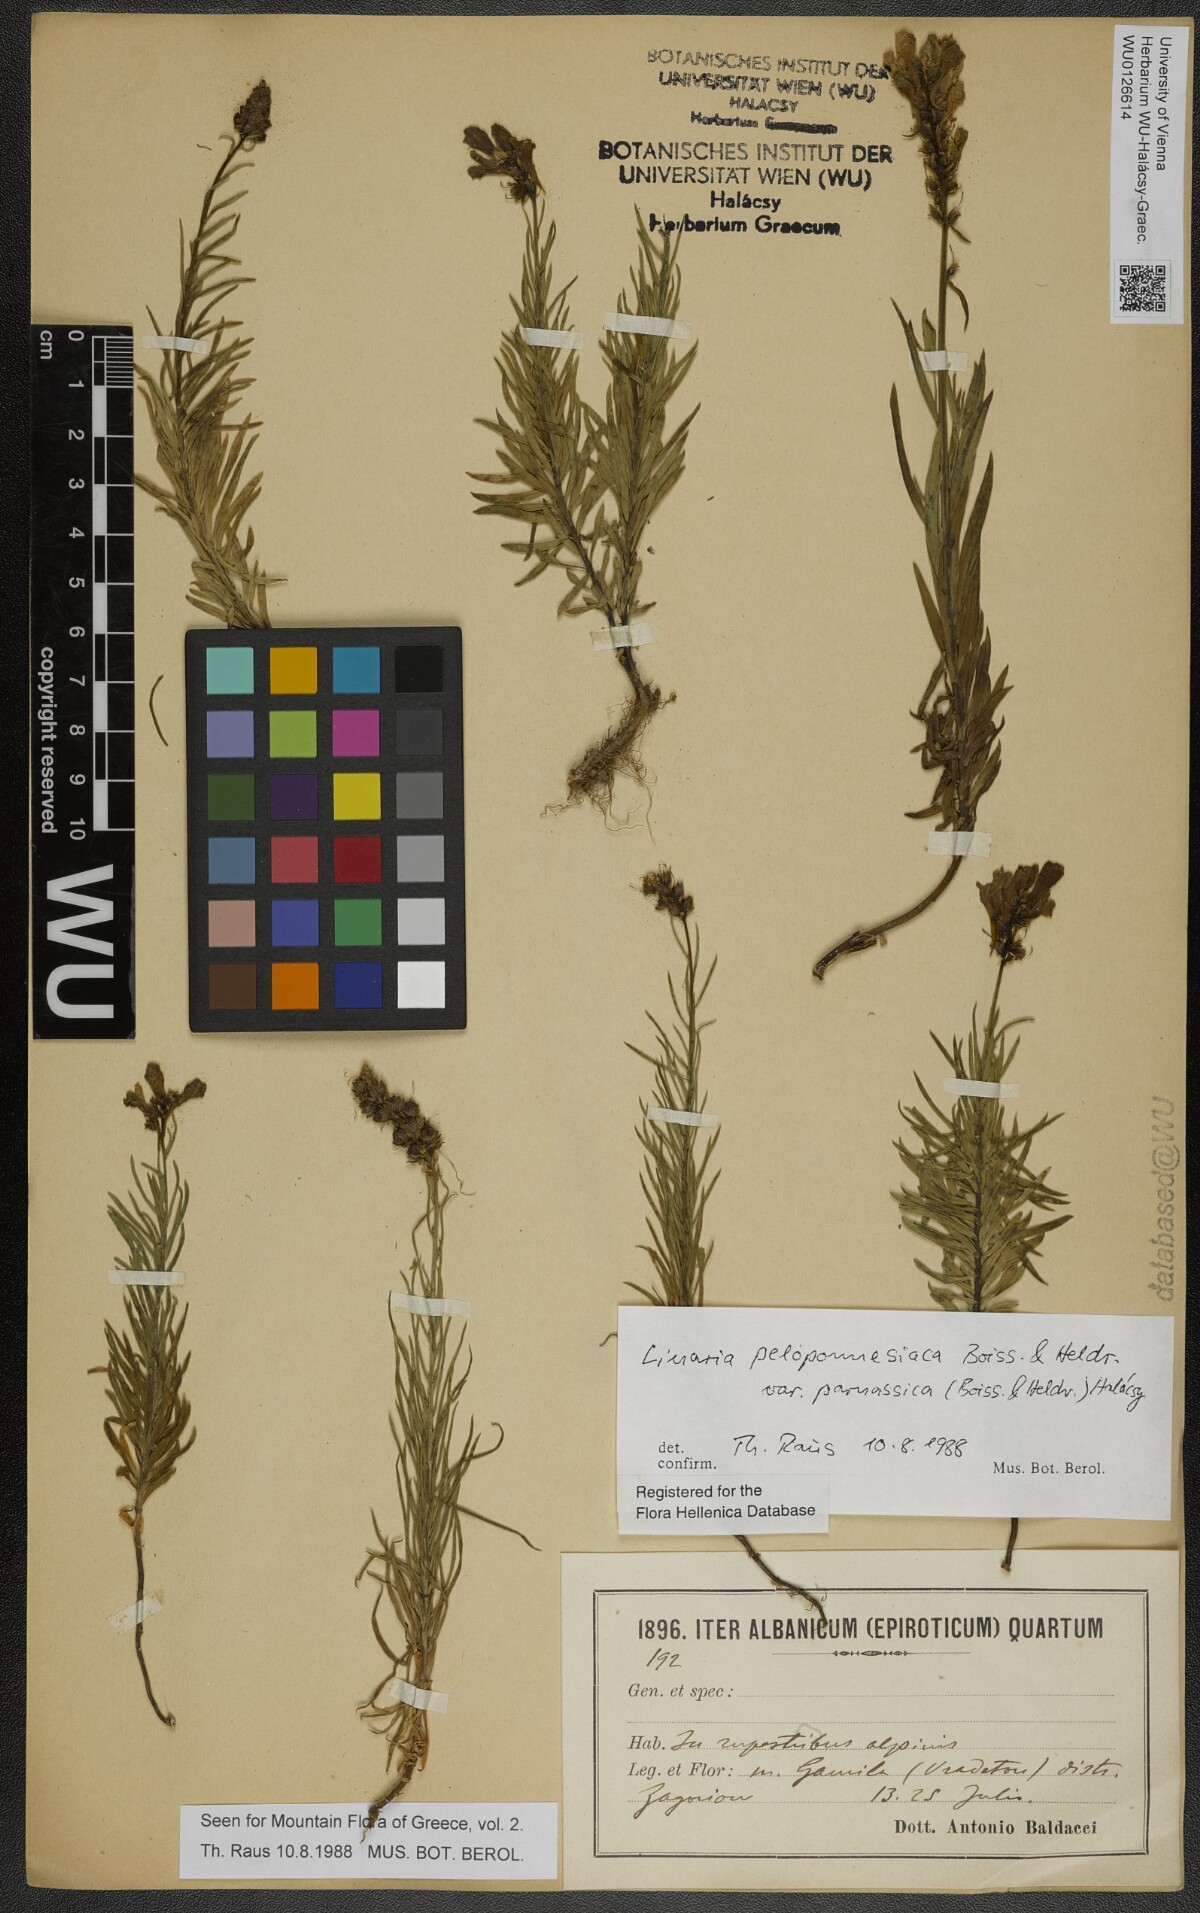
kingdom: Plantae
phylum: Tracheophyta
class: Magnoliopsida
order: Lamiales
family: Plantaginaceae
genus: Linaria
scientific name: Linaria peloponnesiaca
